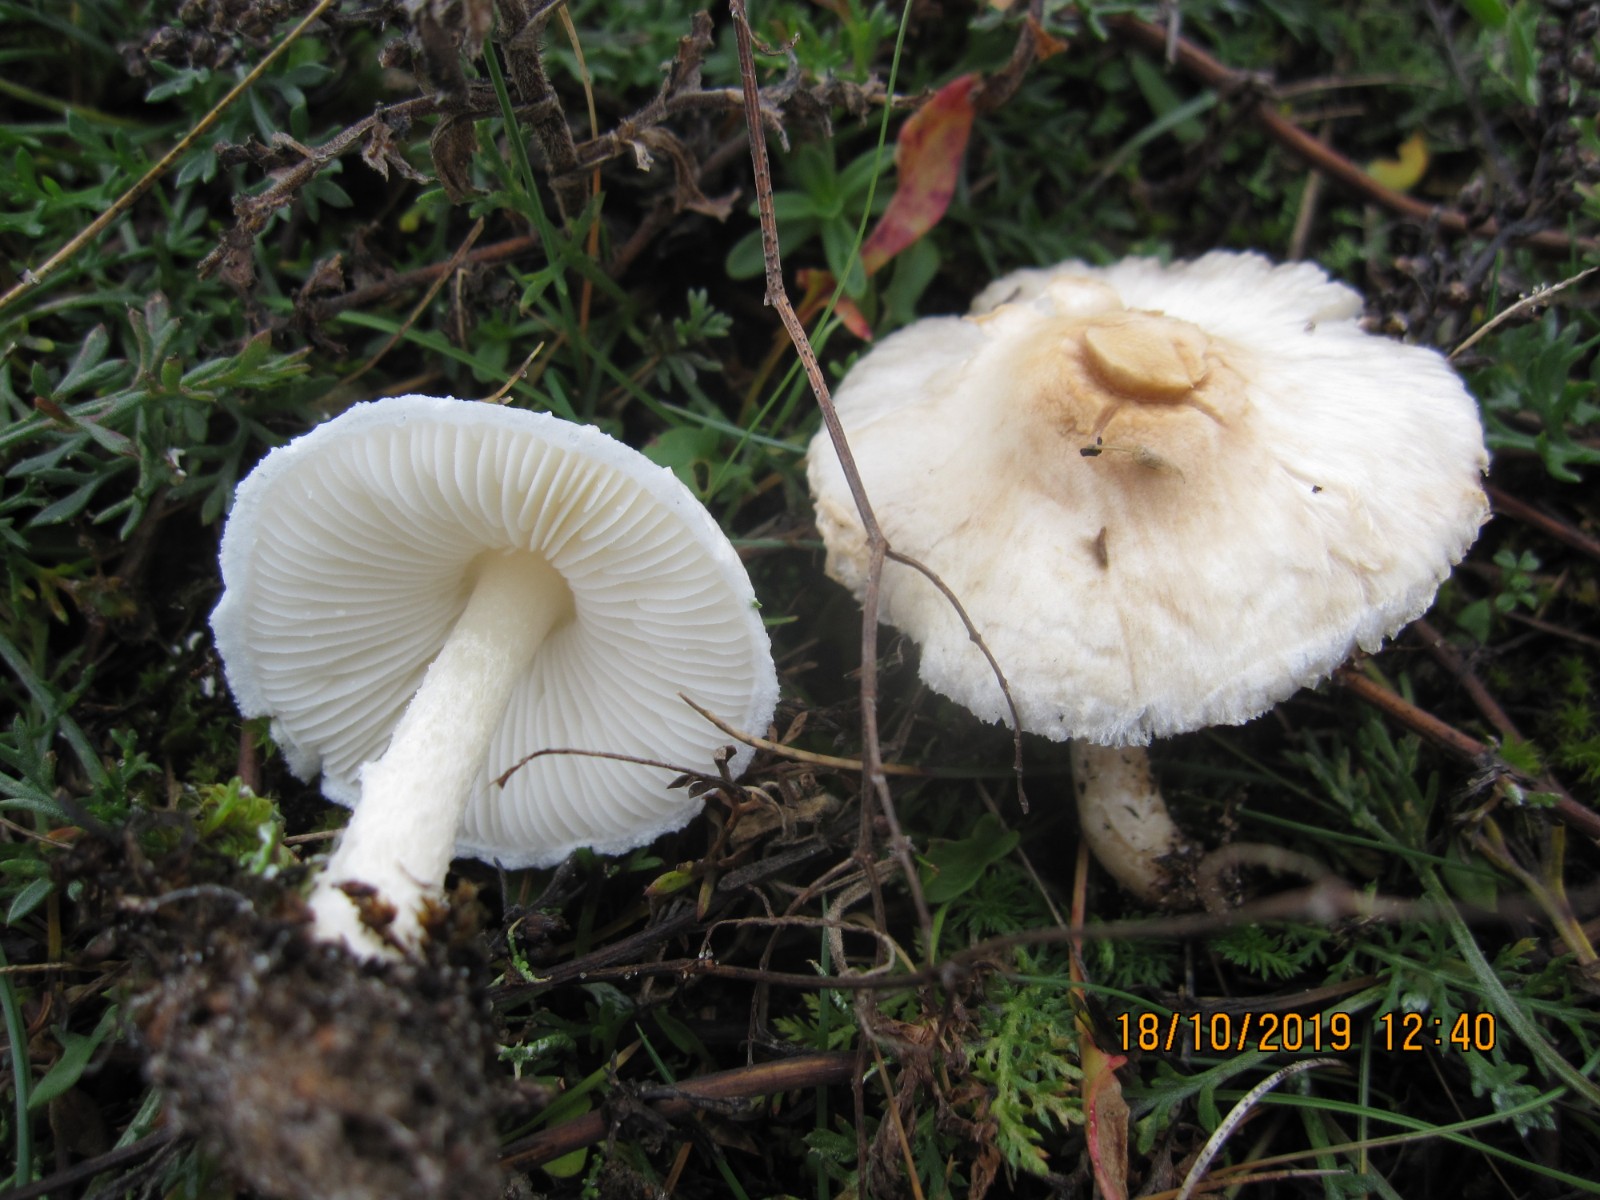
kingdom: Fungi
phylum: Basidiomycota
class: Agaricomycetes
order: Agaricales
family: Agaricaceae
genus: Lepiota
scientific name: Lepiota erminea
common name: hvid parasolhat
